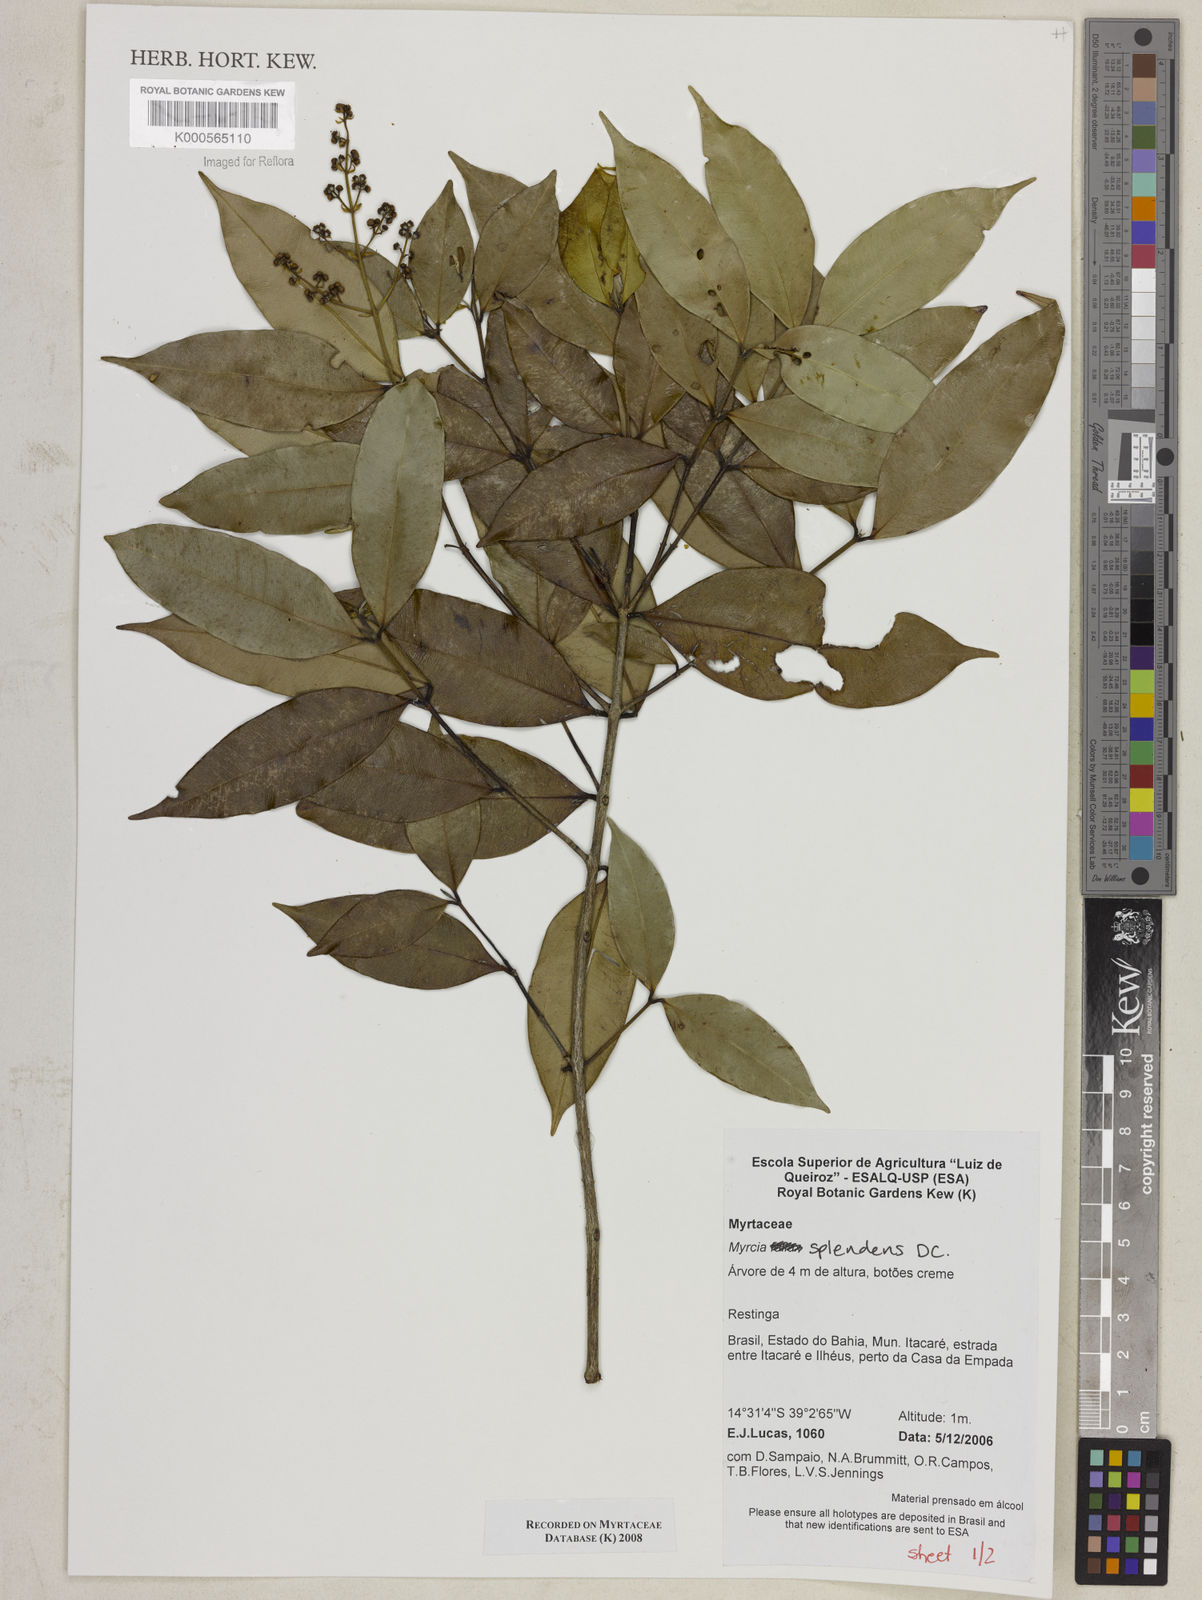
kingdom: Plantae
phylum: Tracheophyta
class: Magnoliopsida
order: Myrtales
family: Myrtaceae
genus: Myrcia
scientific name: Myrcia splendens
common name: Surinam cherry
